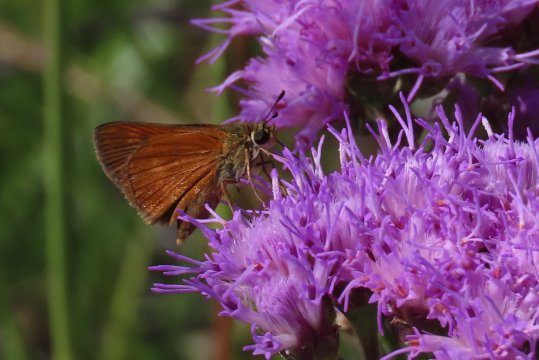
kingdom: Animalia
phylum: Arthropoda
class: Insecta
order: Lepidoptera
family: Hesperiidae
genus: Wallengrenia
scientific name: Wallengrenia otho
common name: Southern Broken-Dash
